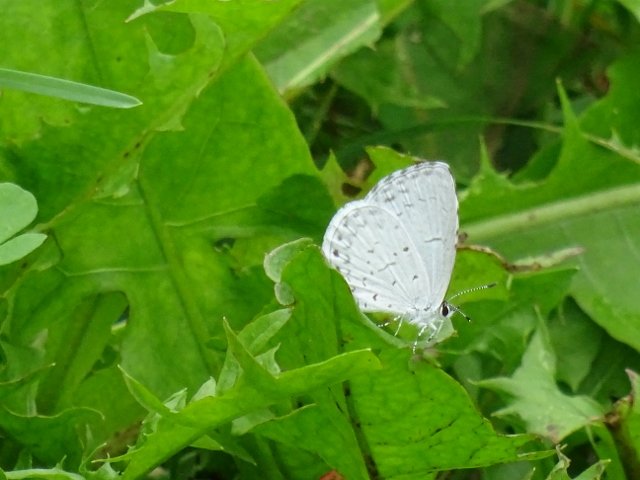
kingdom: Animalia
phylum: Arthropoda
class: Insecta
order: Lepidoptera
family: Lycaenidae
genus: Celastrina
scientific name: Celastrina
